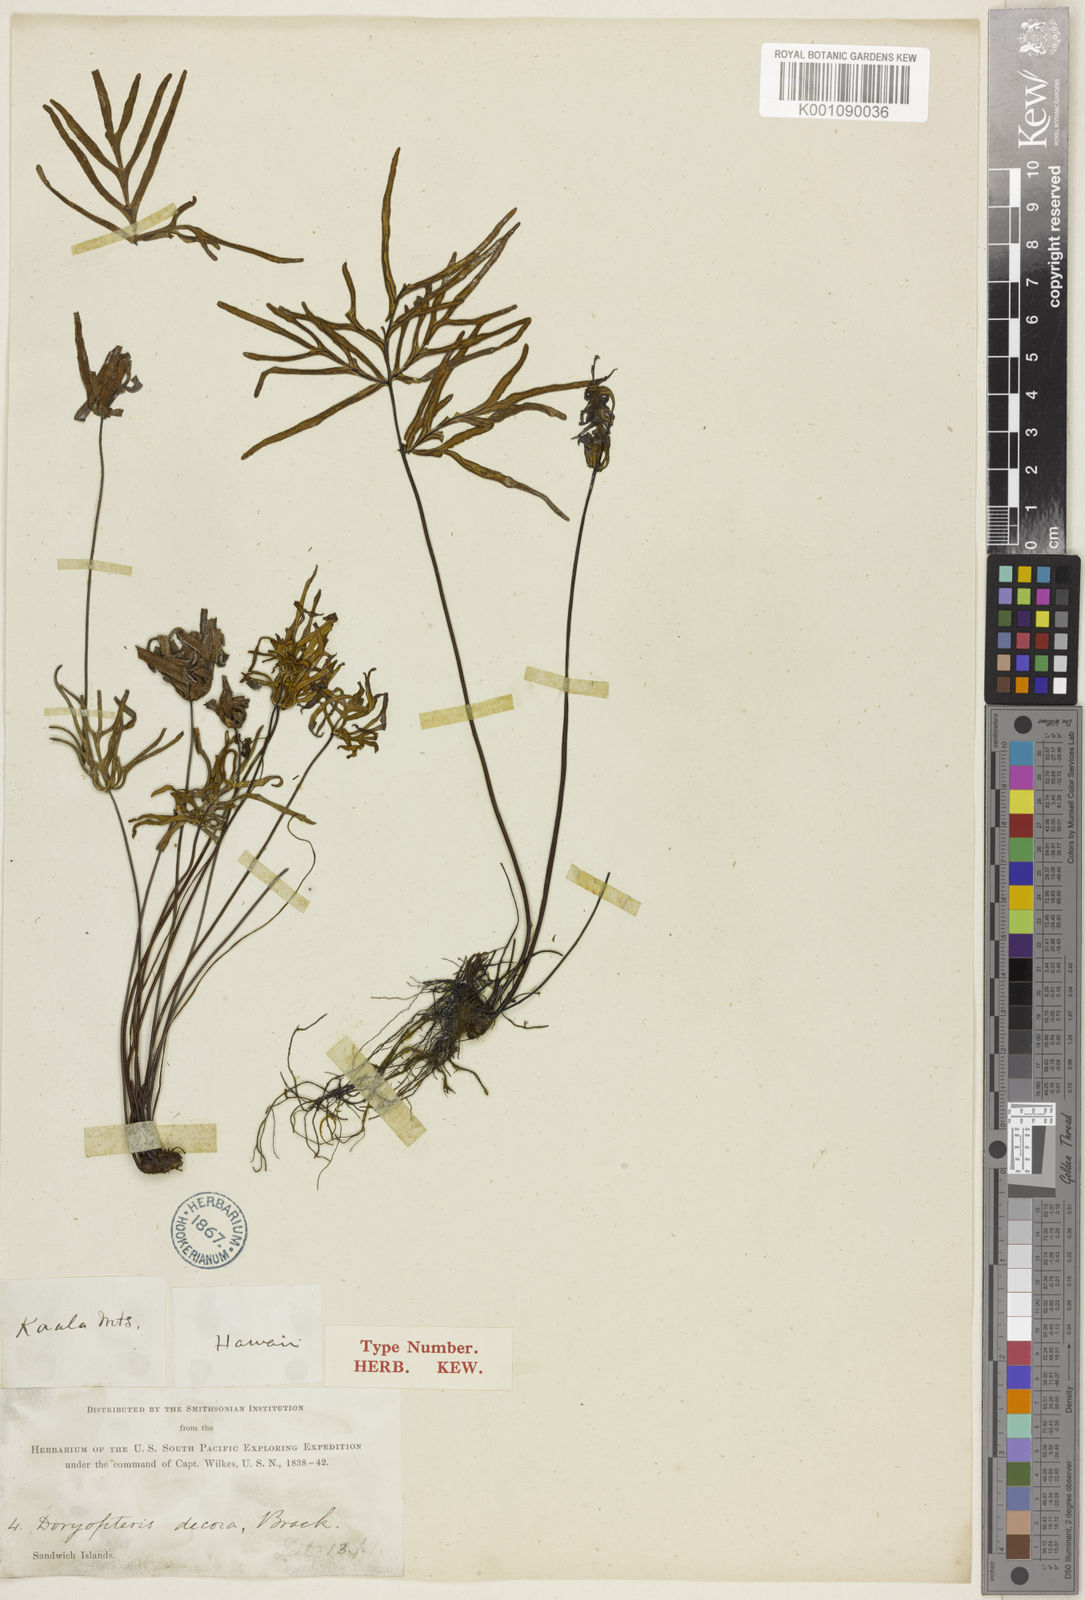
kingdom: Plantae
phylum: Tracheophyta
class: Polypodiopsida
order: Polypodiales
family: Pteridaceae
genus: Doryopteris
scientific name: Doryopteris decipiens
